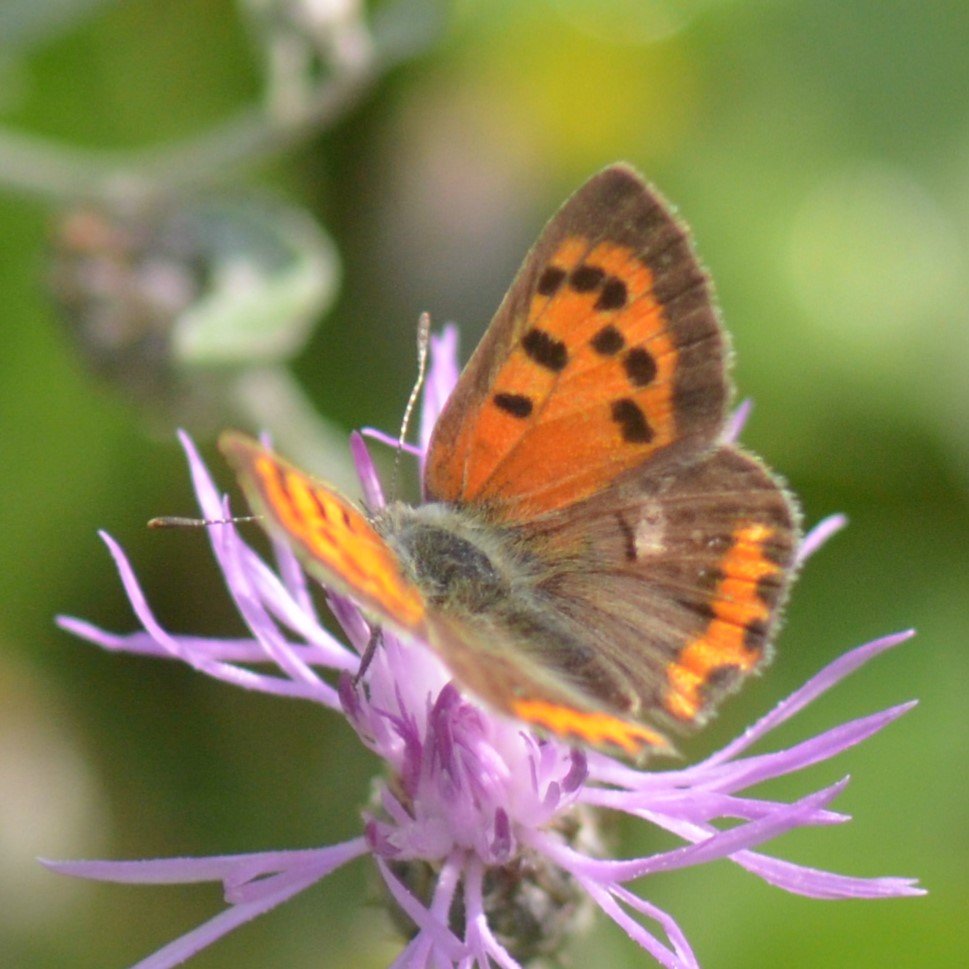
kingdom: Animalia
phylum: Arthropoda
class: Insecta
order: Lepidoptera
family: Lycaenidae
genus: Lycaena
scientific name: Lycaena phlaeas
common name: American Copper
